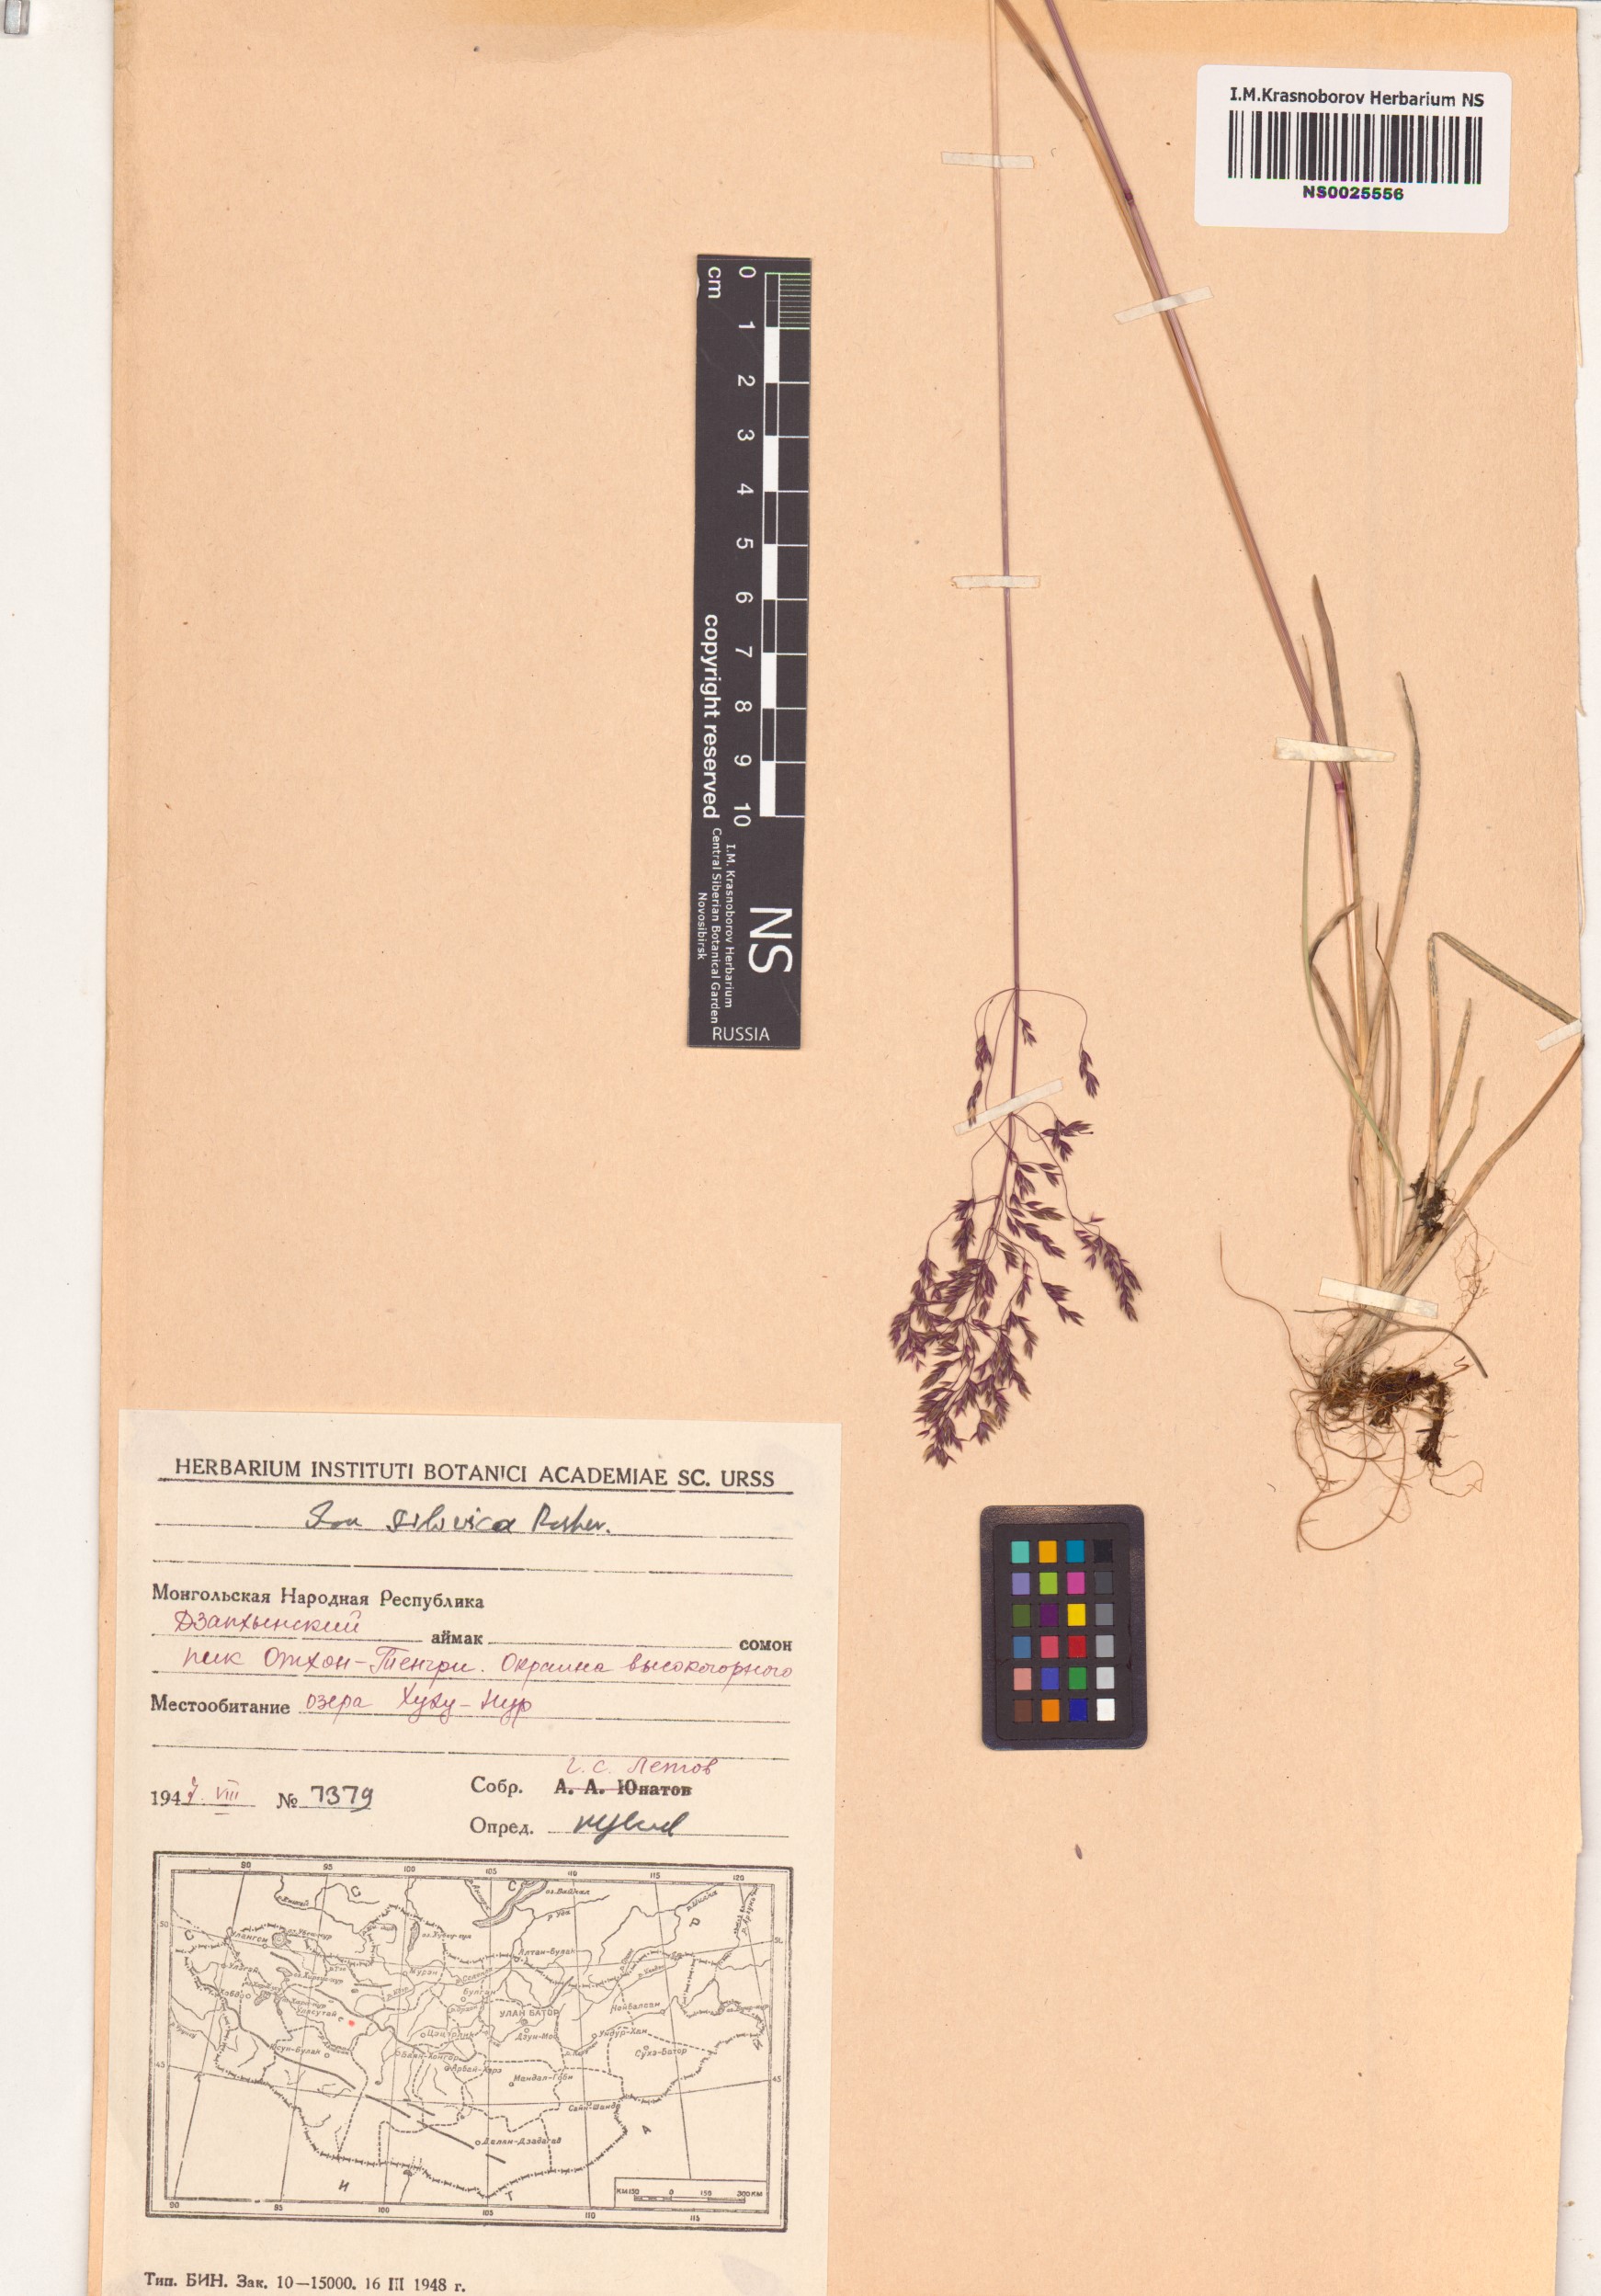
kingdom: Plantae
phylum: Tracheophyta
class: Liliopsida
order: Poales
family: Poaceae
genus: Poa
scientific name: Poa sibirica
